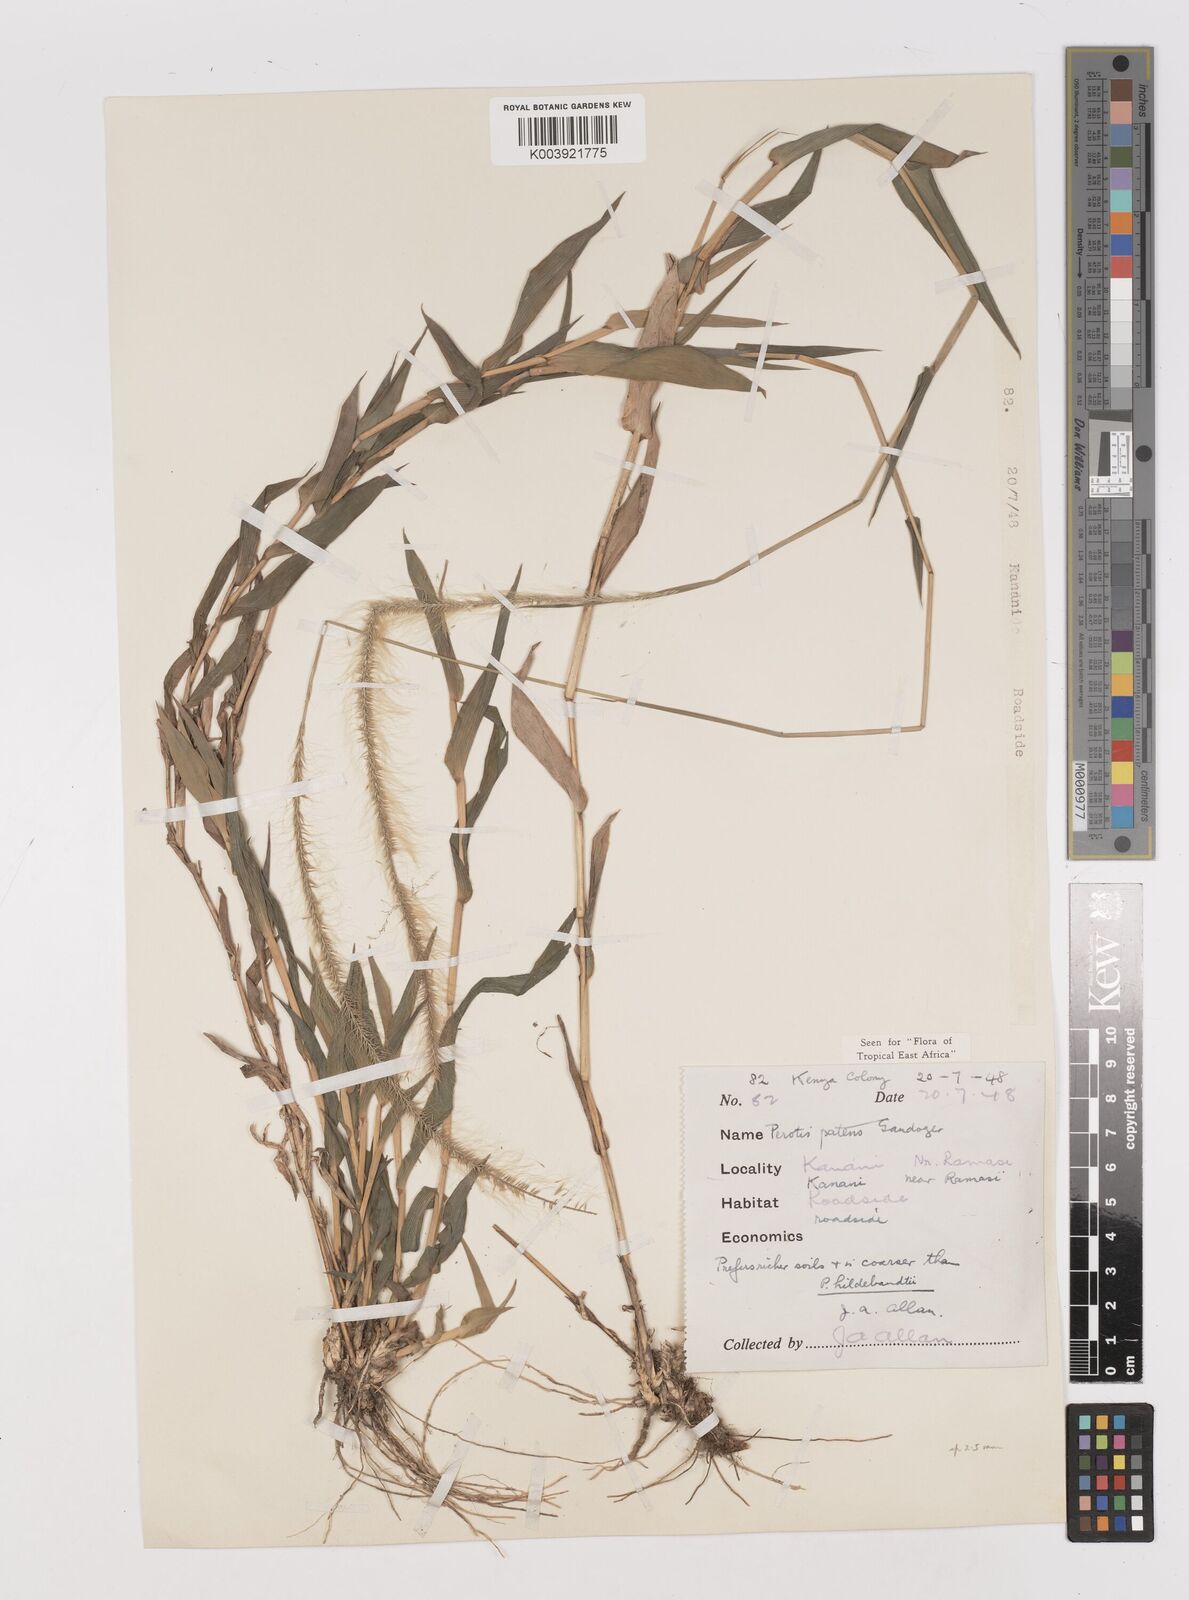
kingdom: Plantae
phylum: Tracheophyta
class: Liliopsida
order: Poales
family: Poaceae
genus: Perotis
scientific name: Perotis patens
